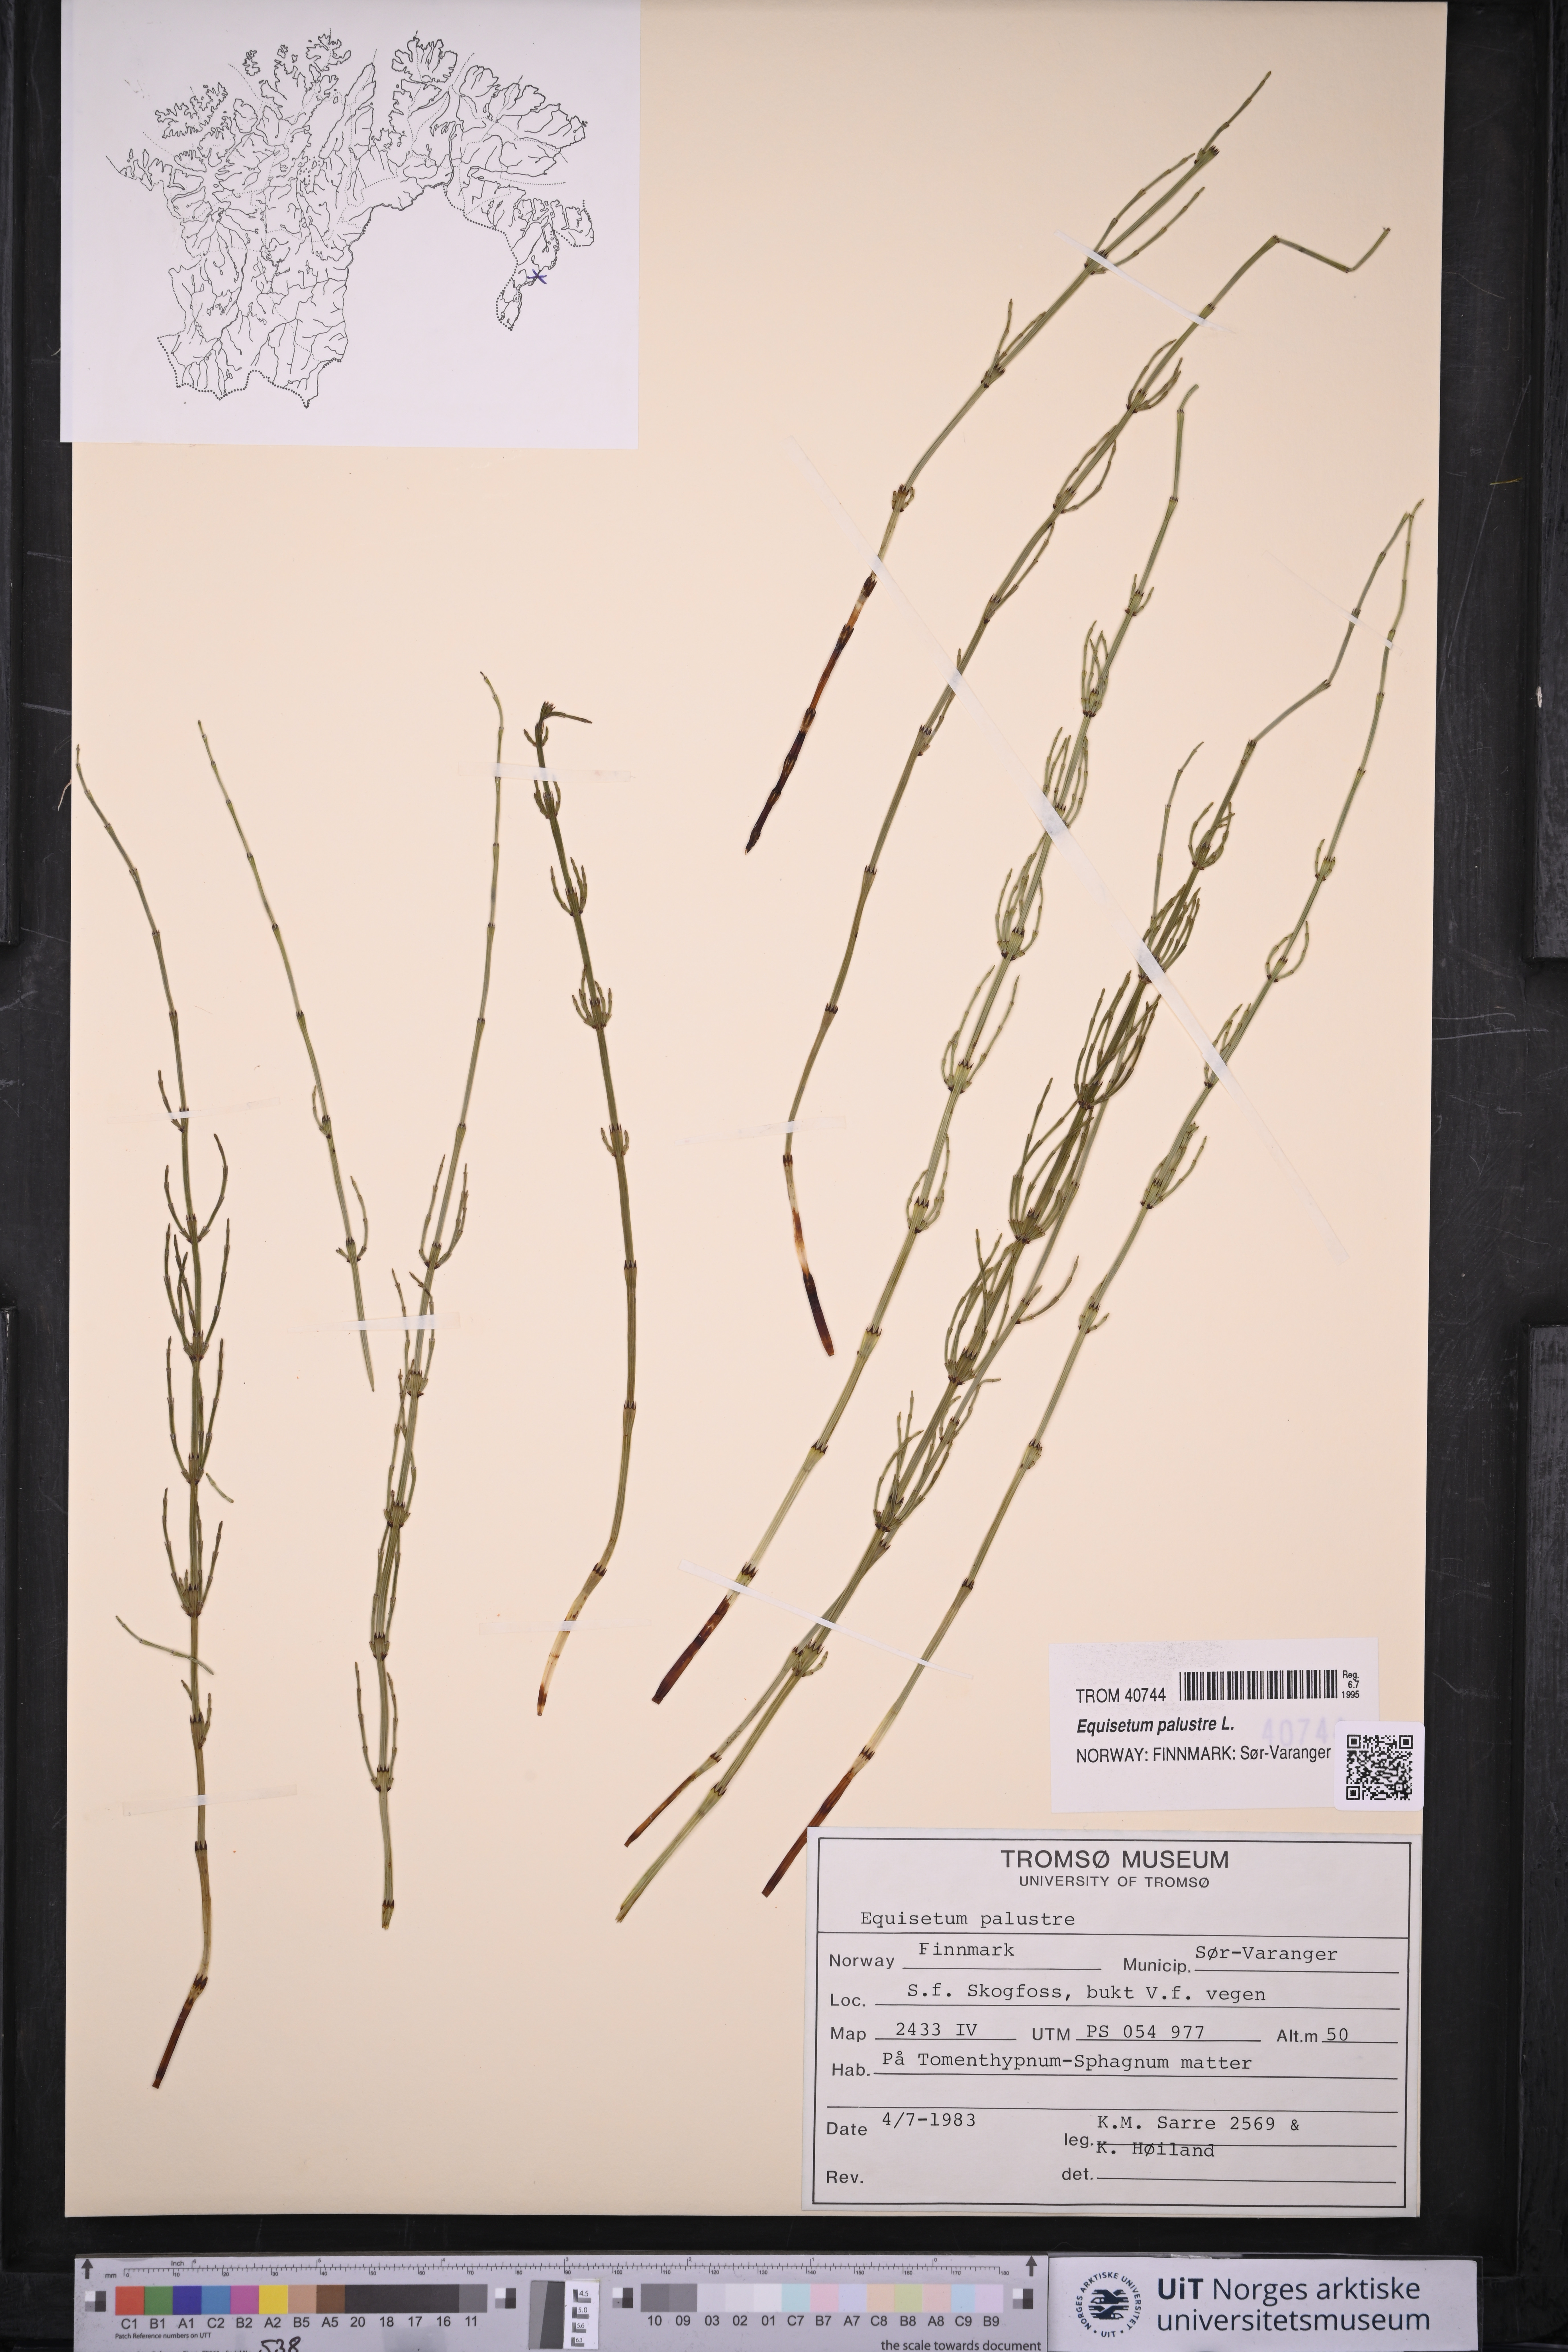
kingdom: Plantae
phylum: Tracheophyta
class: Polypodiopsida
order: Equisetales
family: Equisetaceae
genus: Equisetum
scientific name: Equisetum palustre
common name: Marsh horsetail
